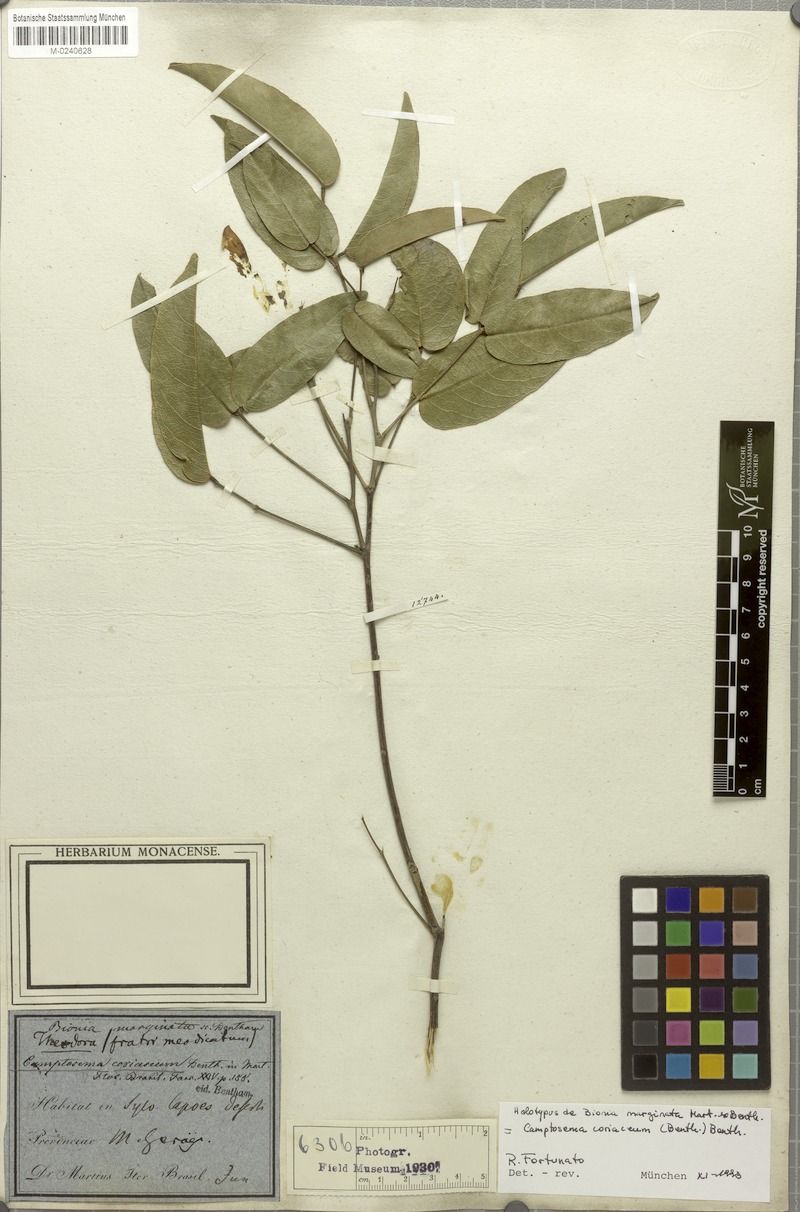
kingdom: Plantae
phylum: Tracheophyta
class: Magnoliopsida
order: Fabales
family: Fabaceae
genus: Camptosema
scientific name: Camptosema coriaceum
